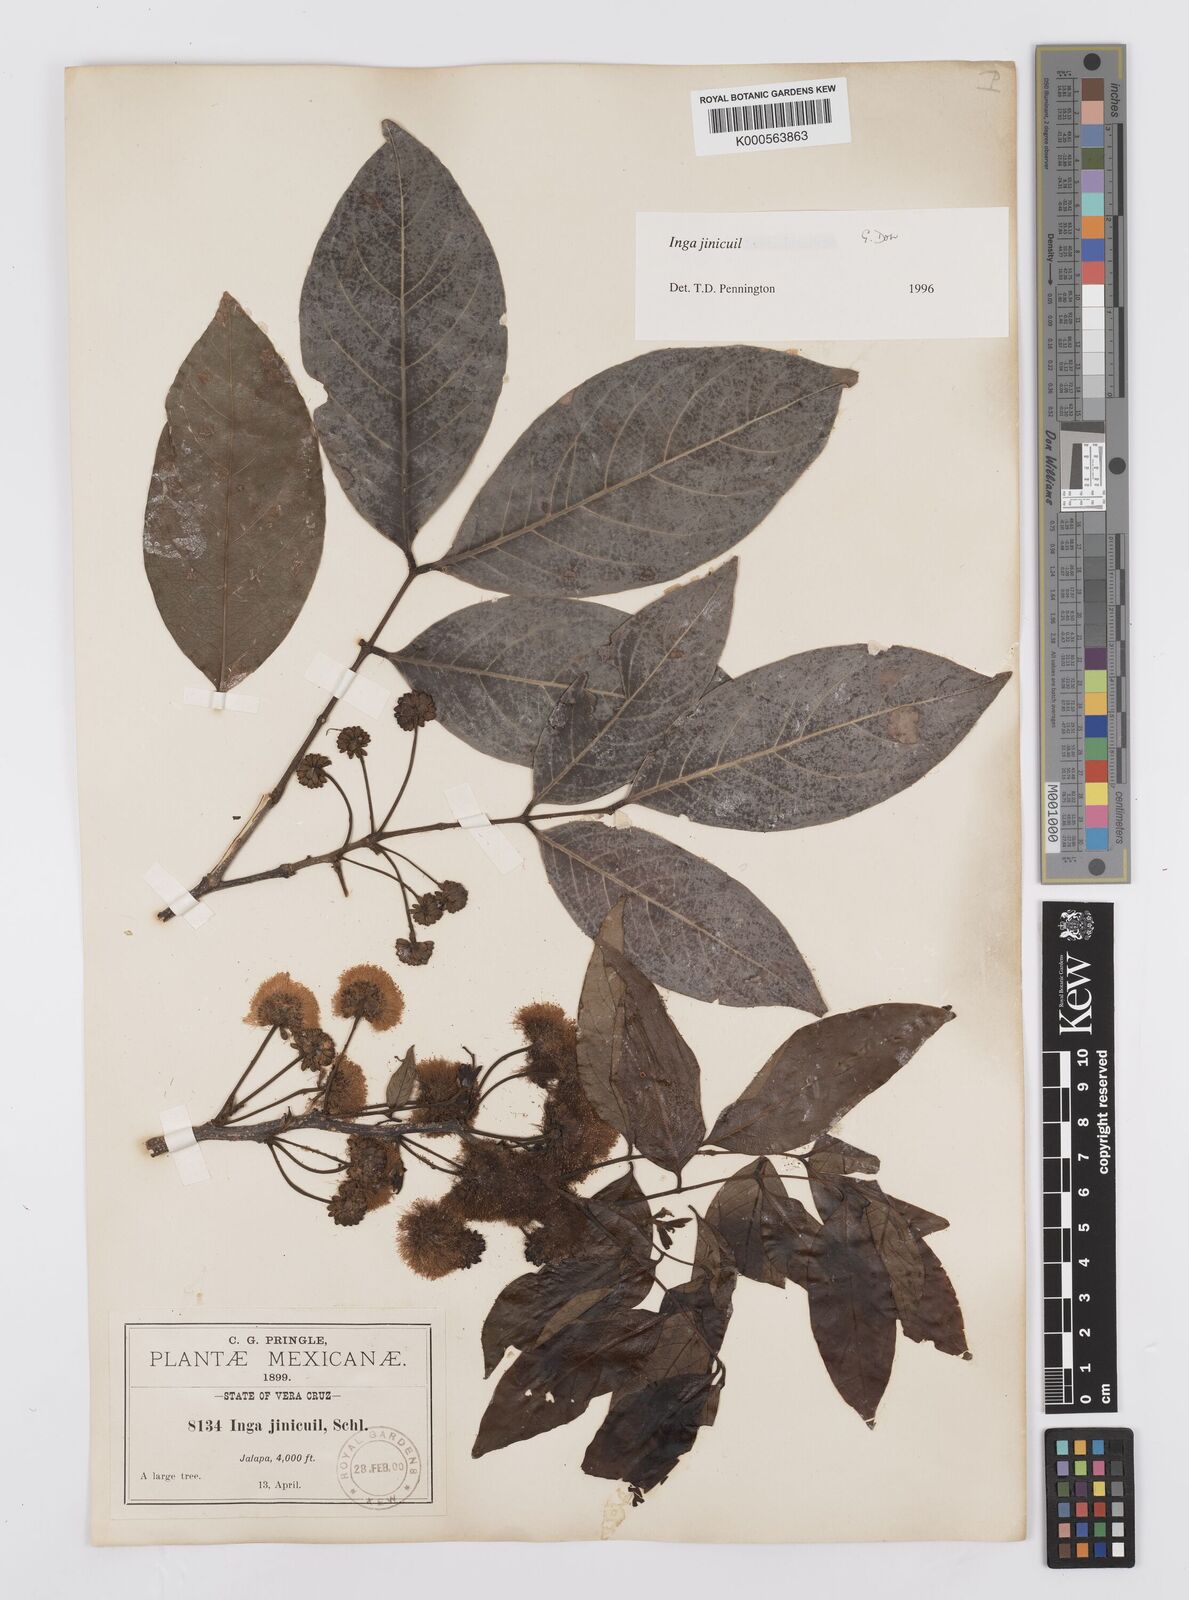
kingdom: Plantae
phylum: Tracheophyta
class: Magnoliopsida
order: Fabales
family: Fabaceae
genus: Inga
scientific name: Inga inicuil
